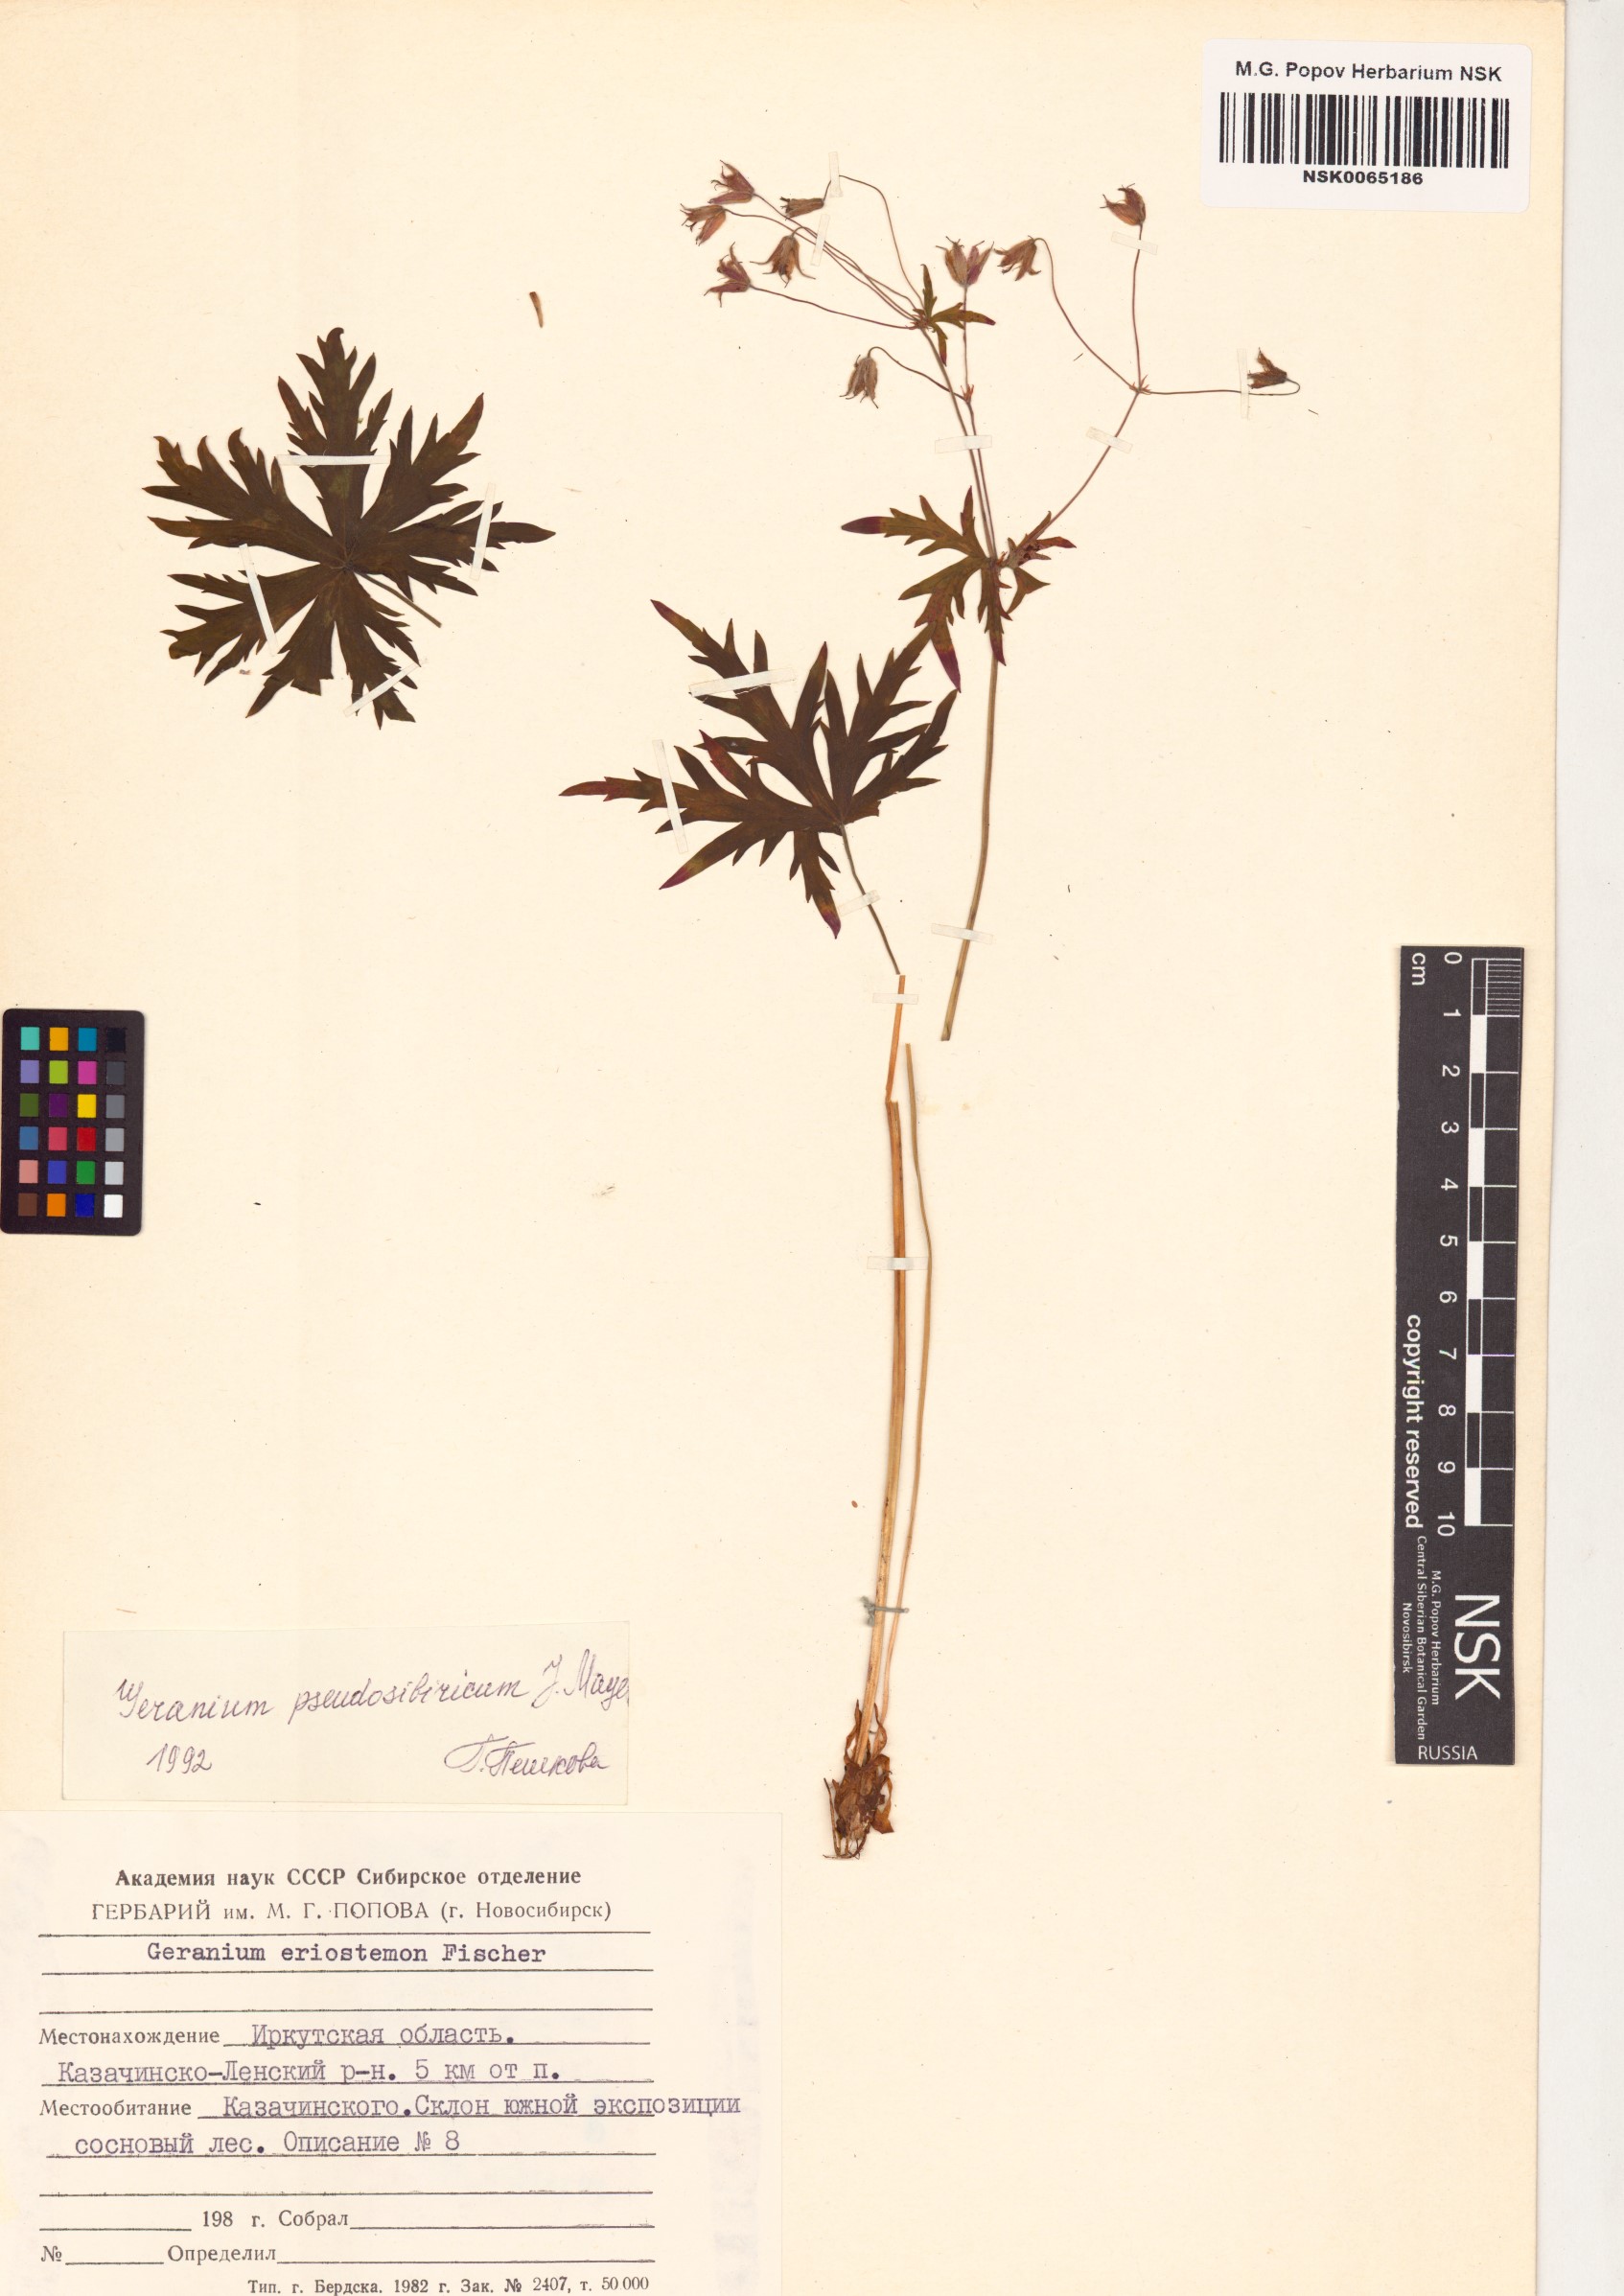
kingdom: Plantae
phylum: Tracheophyta
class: Magnoliopsida
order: Geraniales
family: Geraniaceae
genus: Geranium
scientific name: Geranium pseudosibiricum
